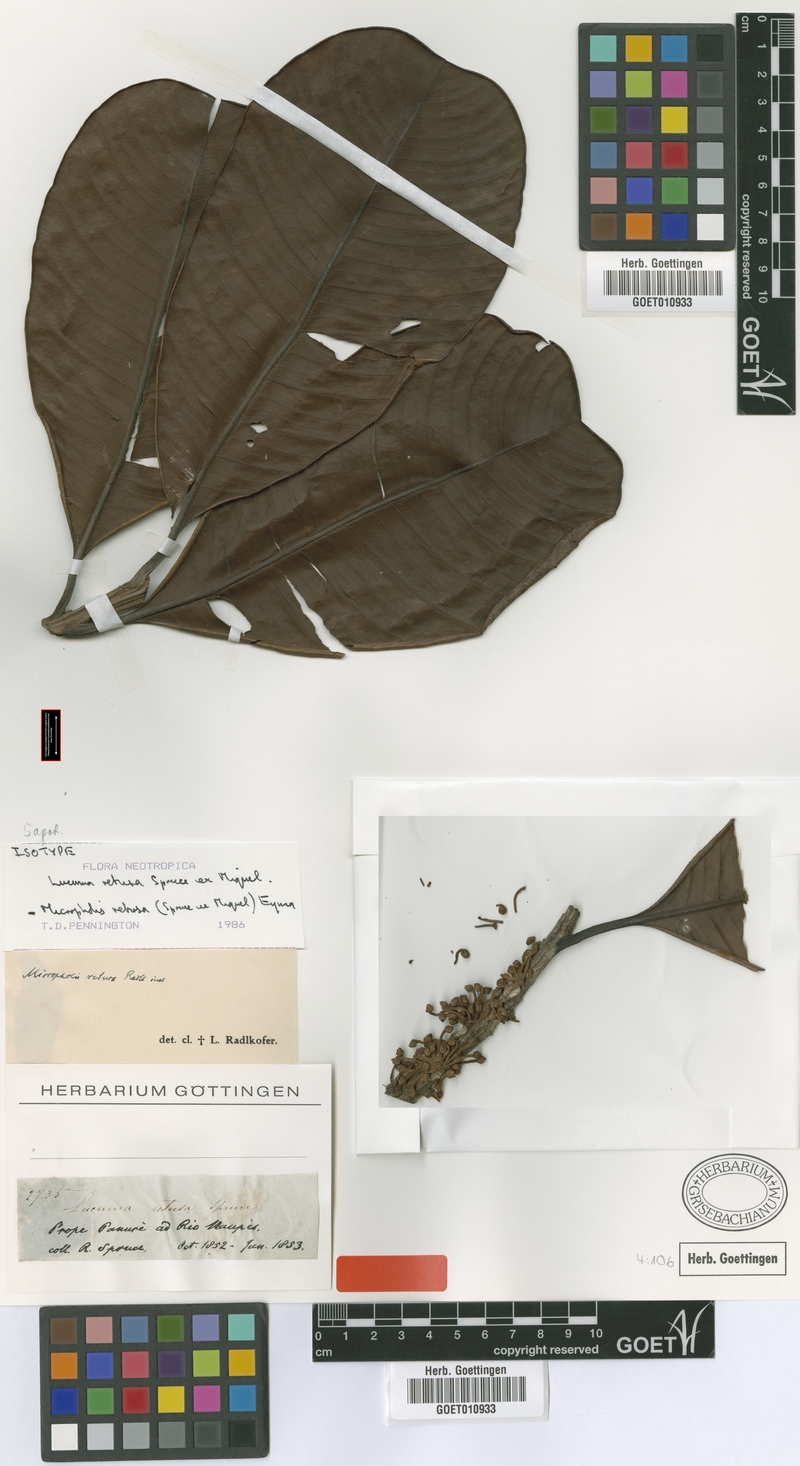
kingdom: Plantae
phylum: Tracheophyta
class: Magnoliopsida
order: Ericales
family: Sapotaceae
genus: Micropholis
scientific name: Micropholis retusa
